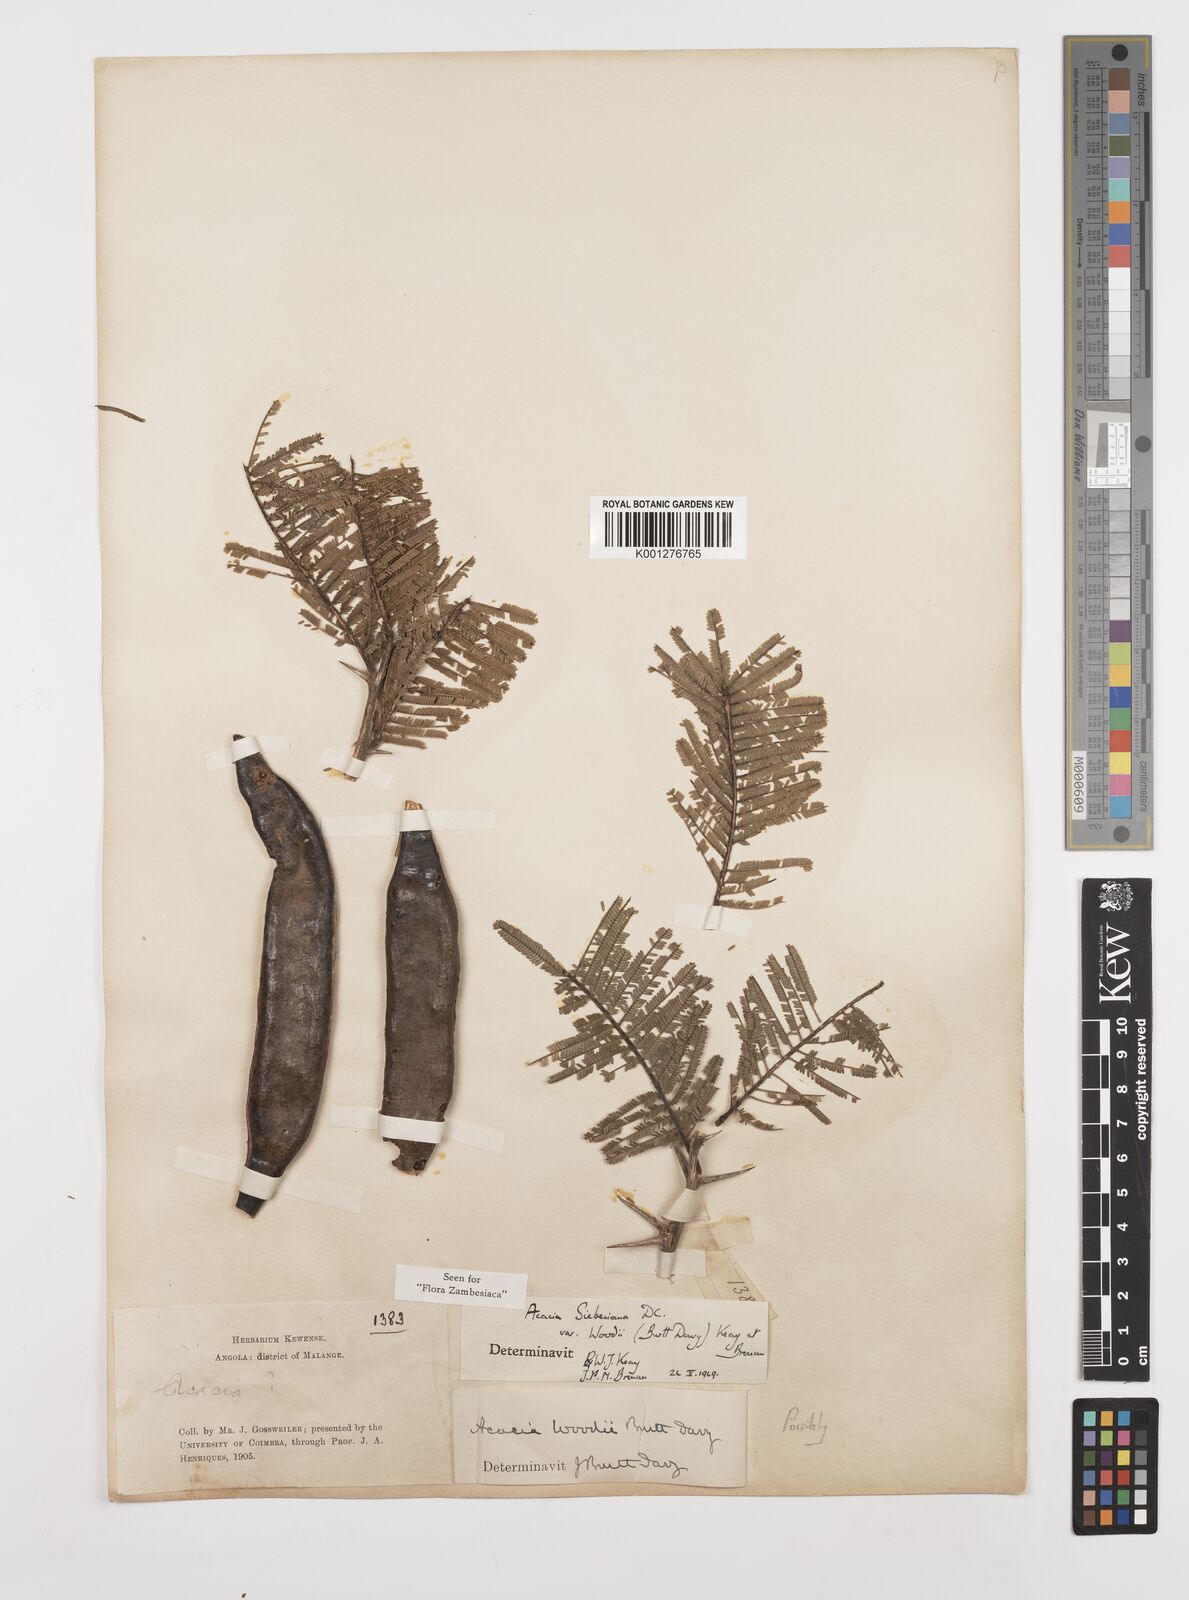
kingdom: Plantae
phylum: Tracheophyta
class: Magnoliopsida
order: Fabales
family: Fabaceae
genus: Vachellia
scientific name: Vachellia sieberiana
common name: Flat-topped thorn
